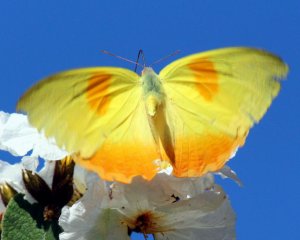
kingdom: Animalia
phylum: Arthropoda
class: Insecta
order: Lepidoptera
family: Pieridae
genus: Phoebis
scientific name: Phoebis philea
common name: Orange-barred Sulphur
